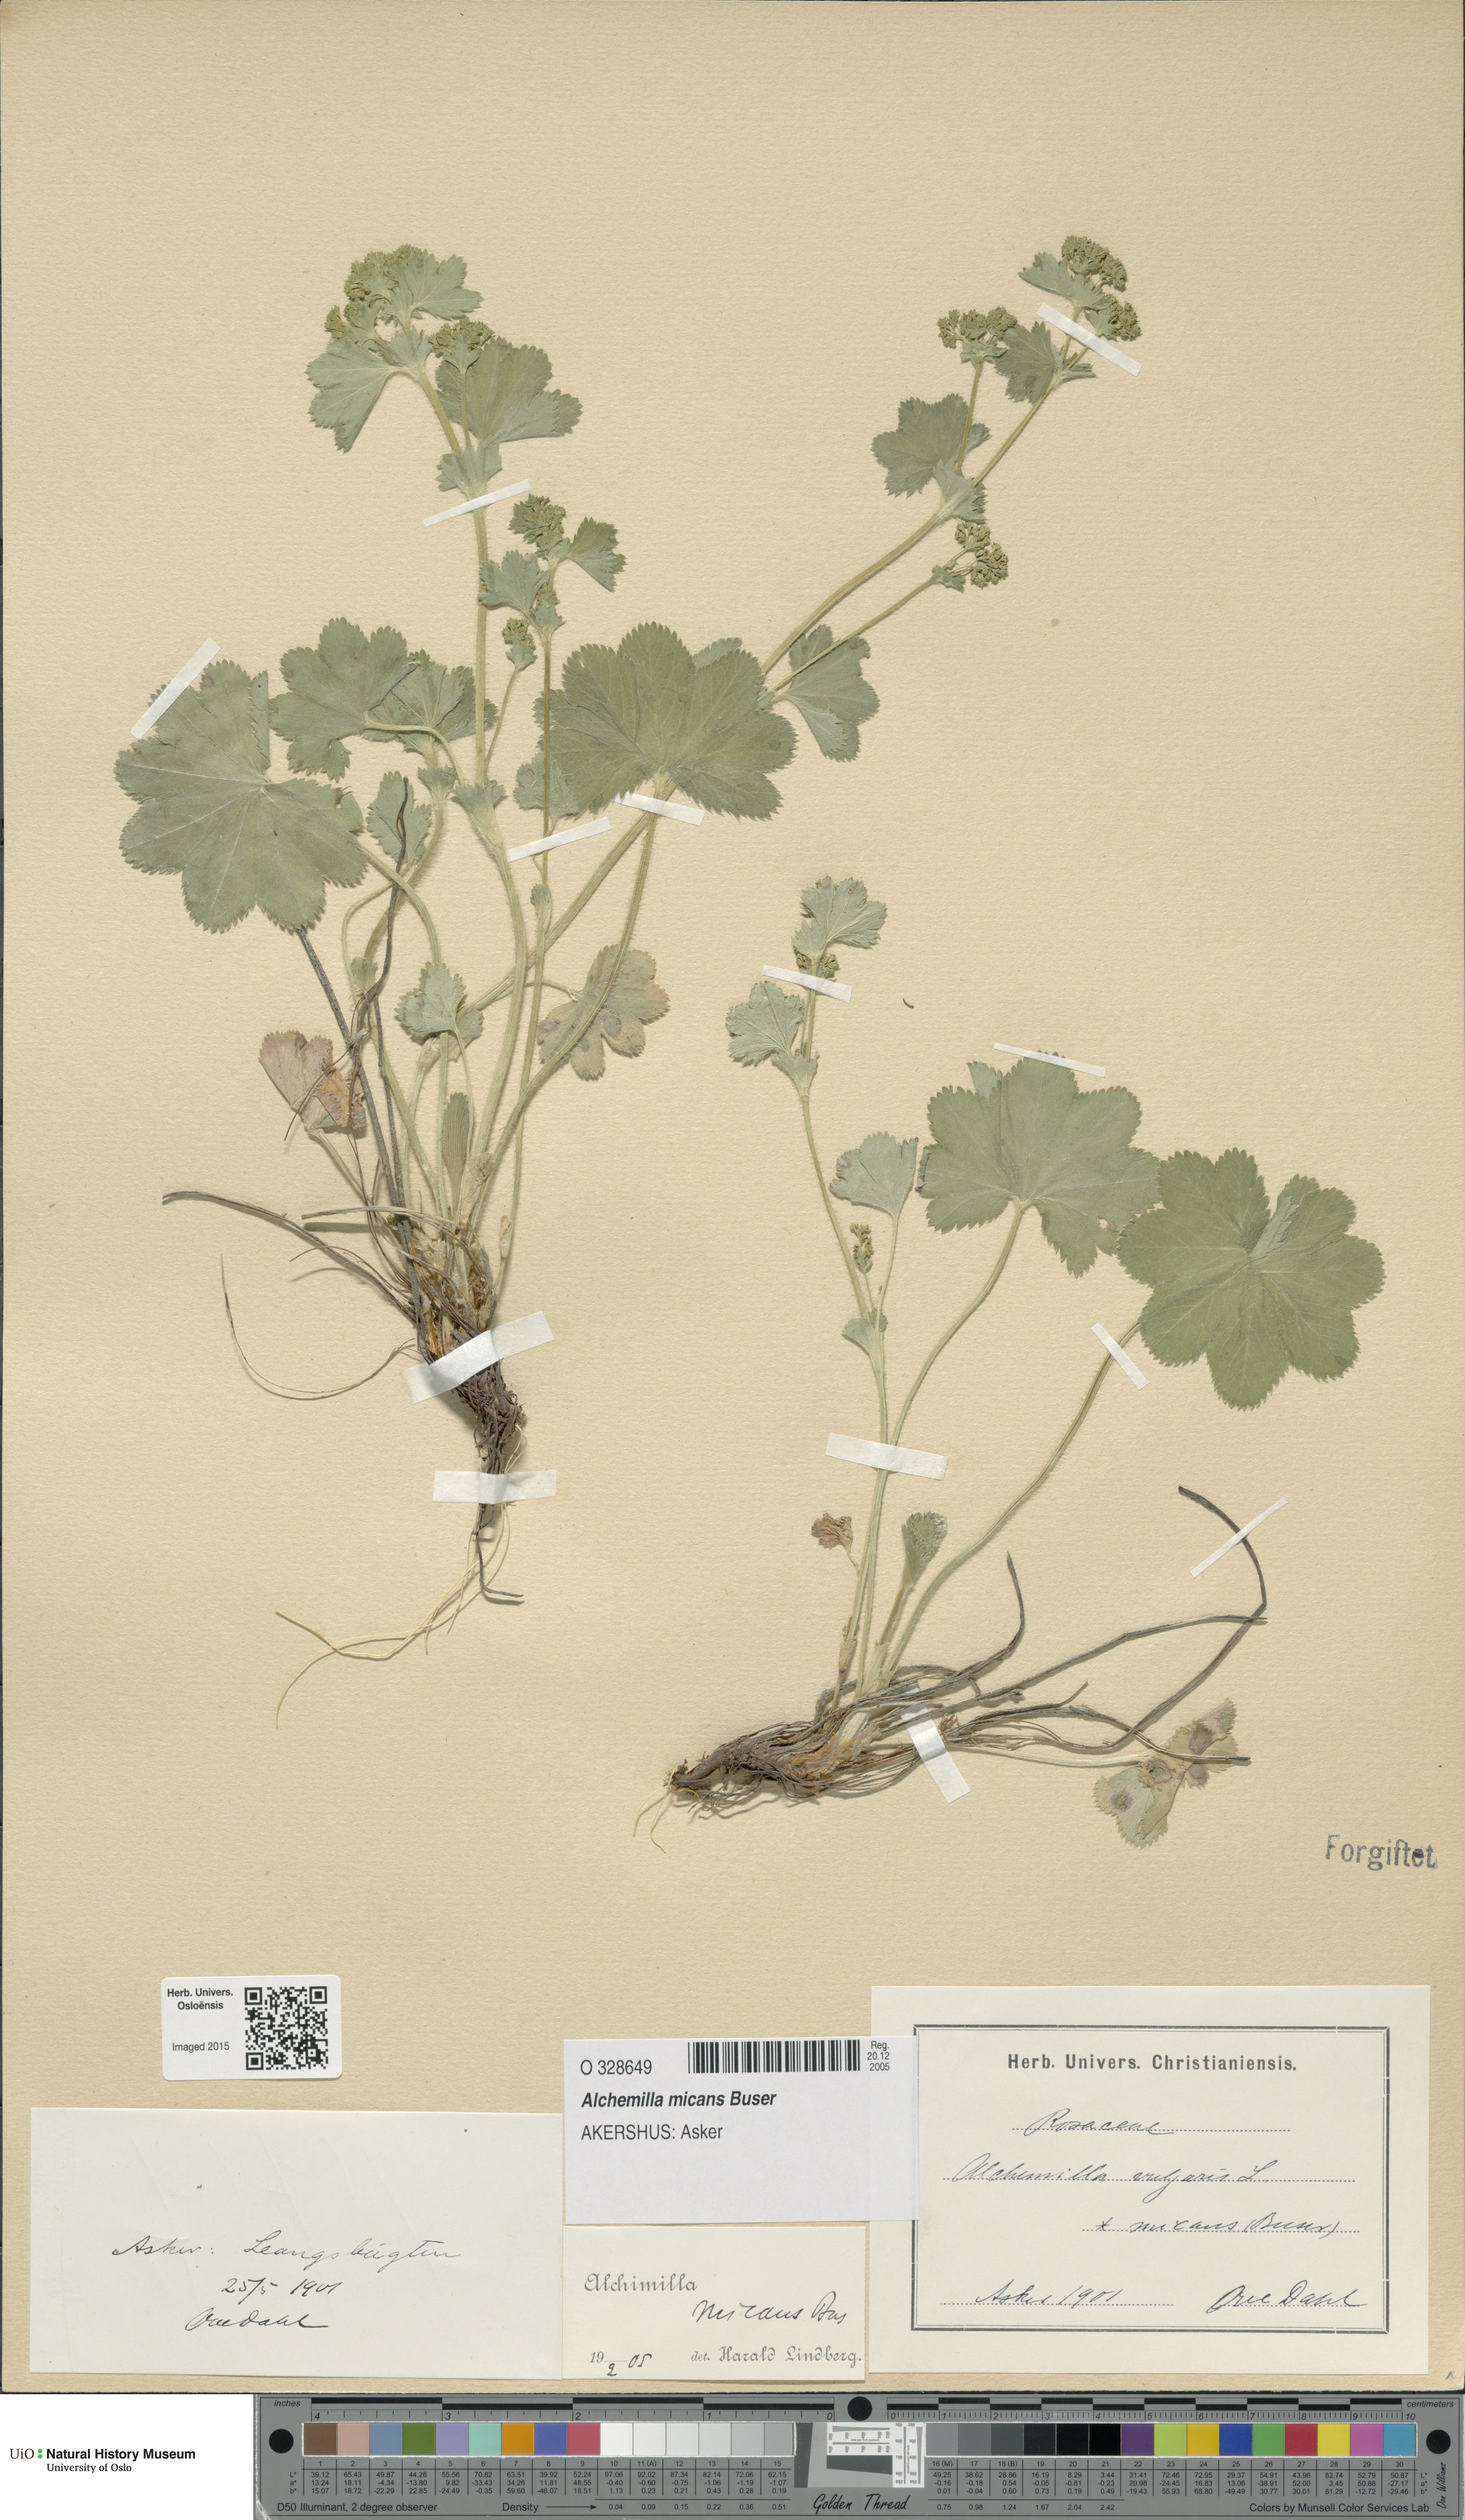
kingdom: Plantae
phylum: Tracheophyta
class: Magnoliopsida
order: Rosales
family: Rosaceae
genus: Alchemilla
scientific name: Alchemilla micans
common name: Gleaming lady's mantle
